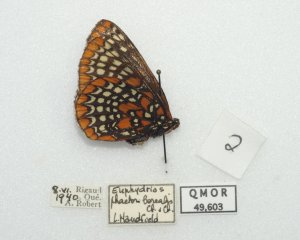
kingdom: Animalia
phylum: Arthropoda
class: Insecta
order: Lepidoptera
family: Nymphalidae
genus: Euphydryas
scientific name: Euphydryas phaeton
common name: Baltimore Checkerspot
